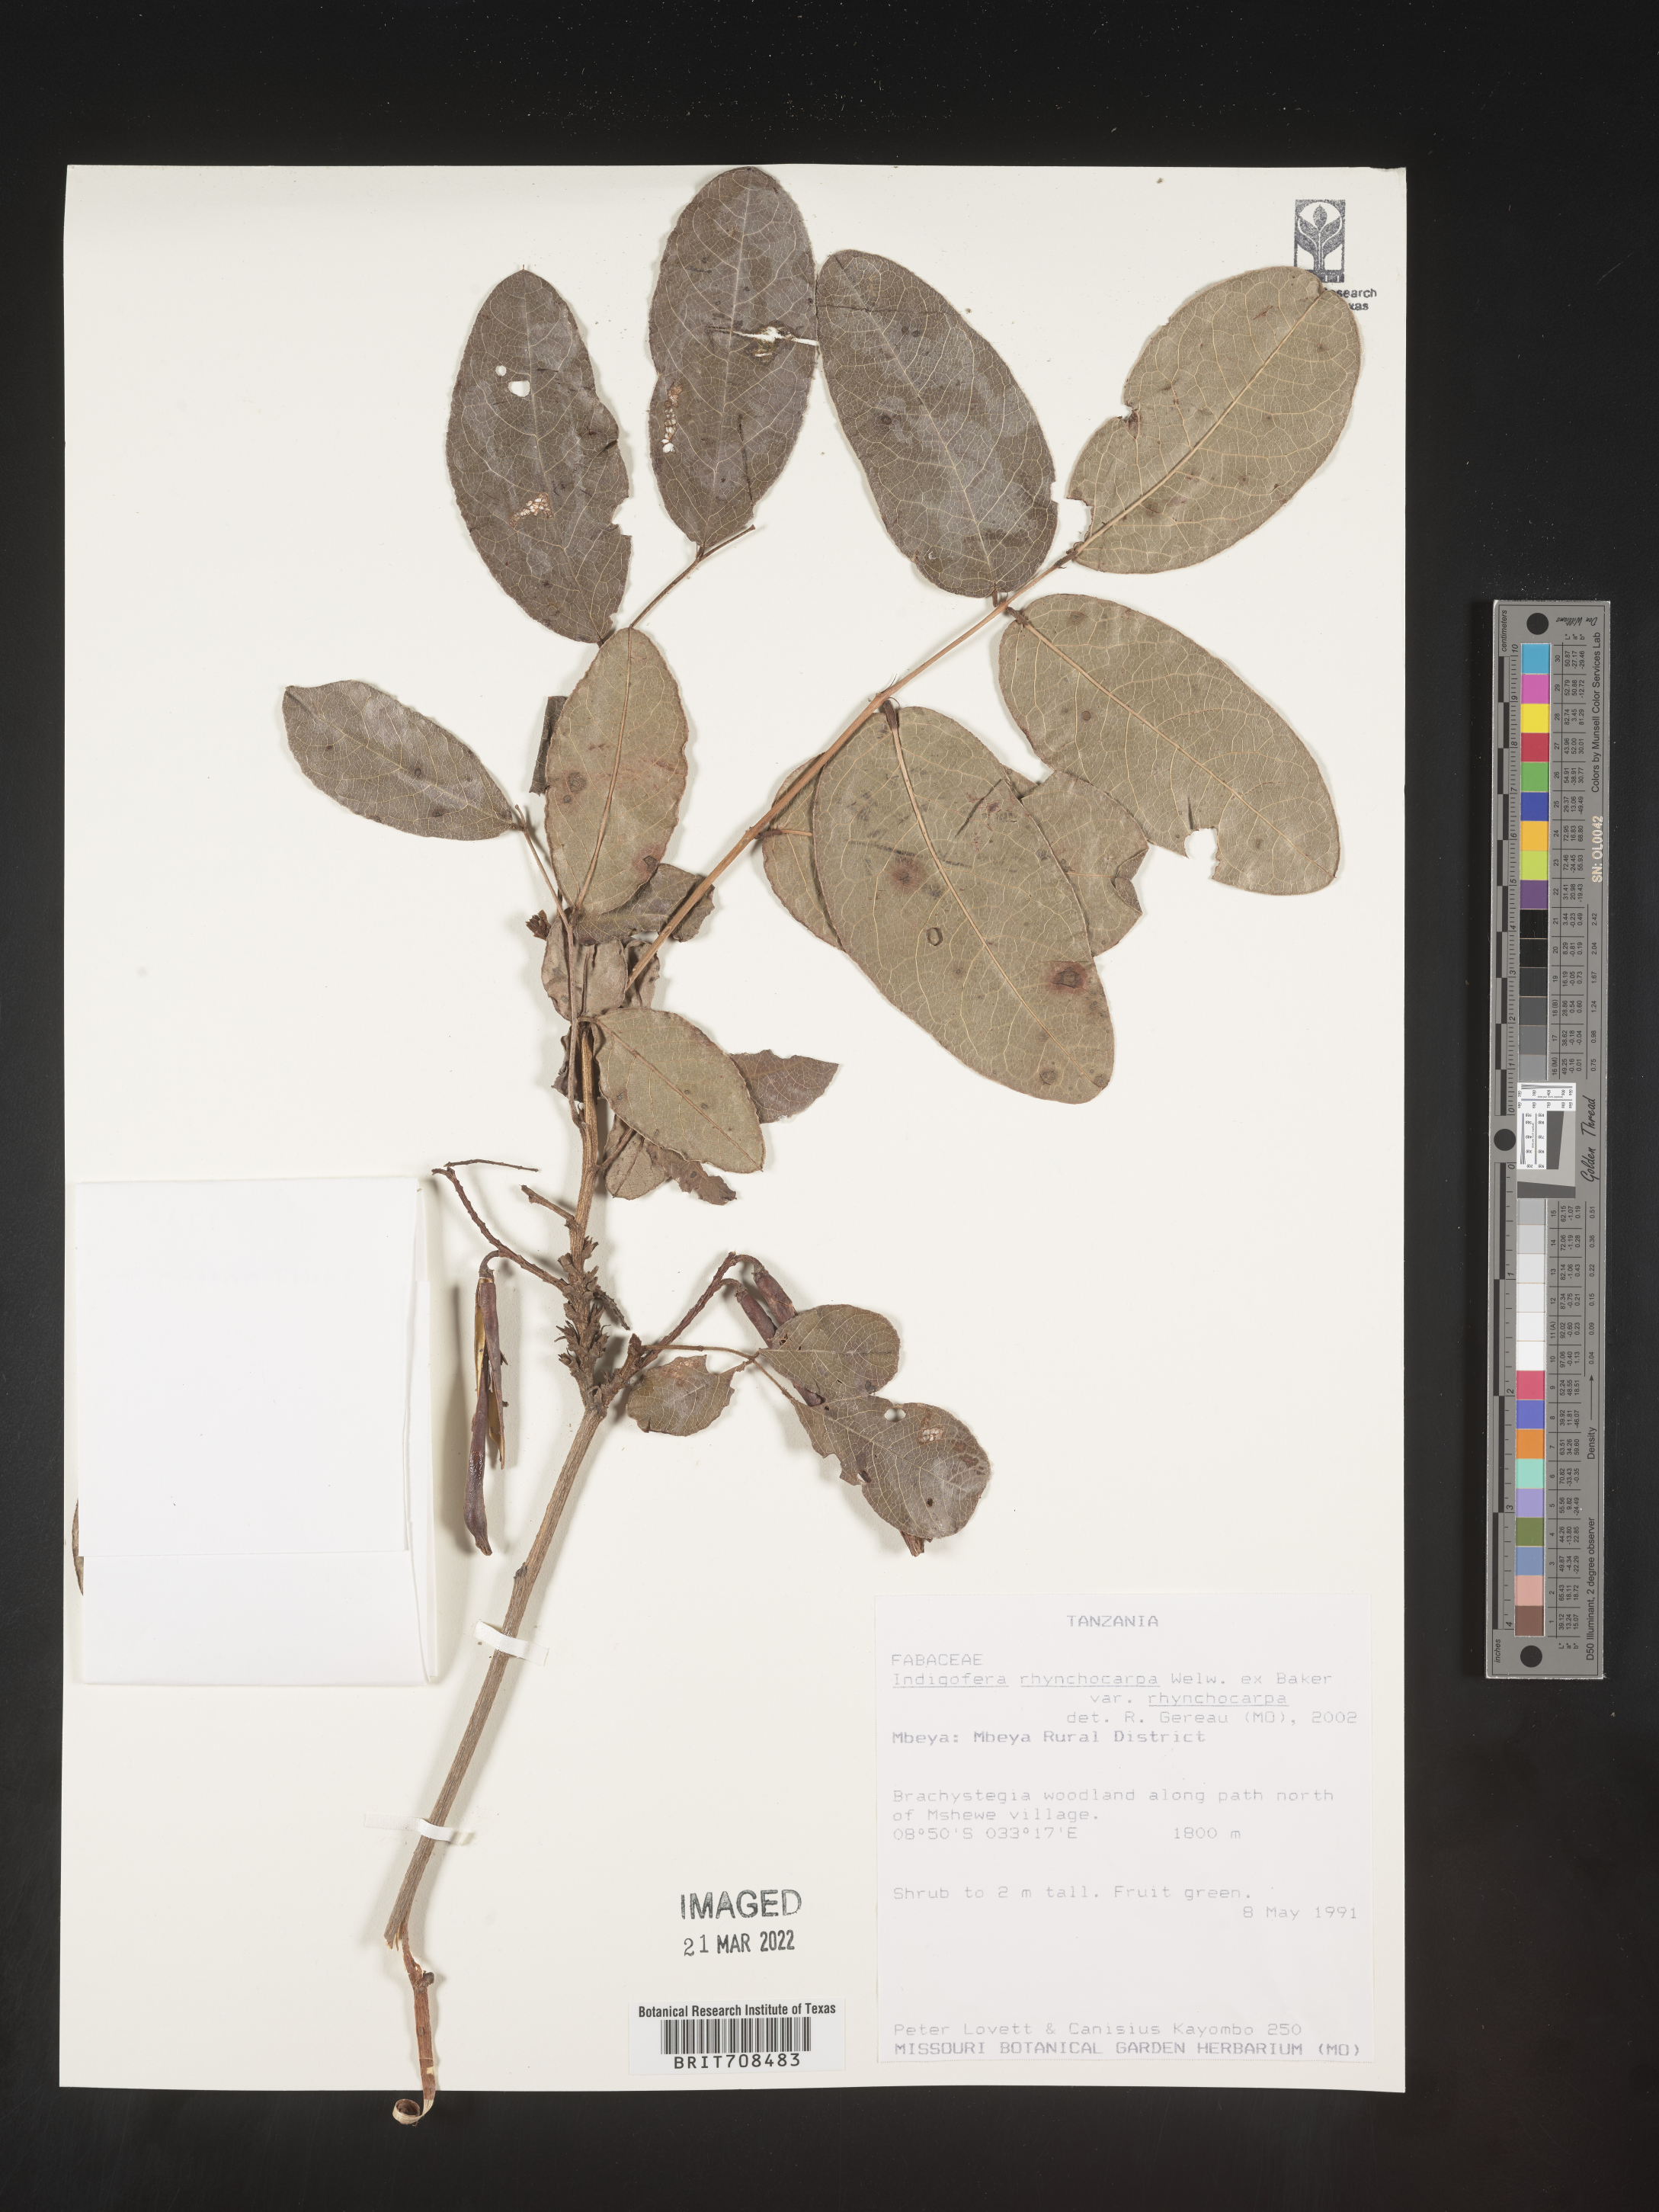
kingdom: Plantae
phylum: Tracheophyta
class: Magnoliopsida
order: Fabales
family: Fabaceae
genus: Indigofera
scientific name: Indigofera
